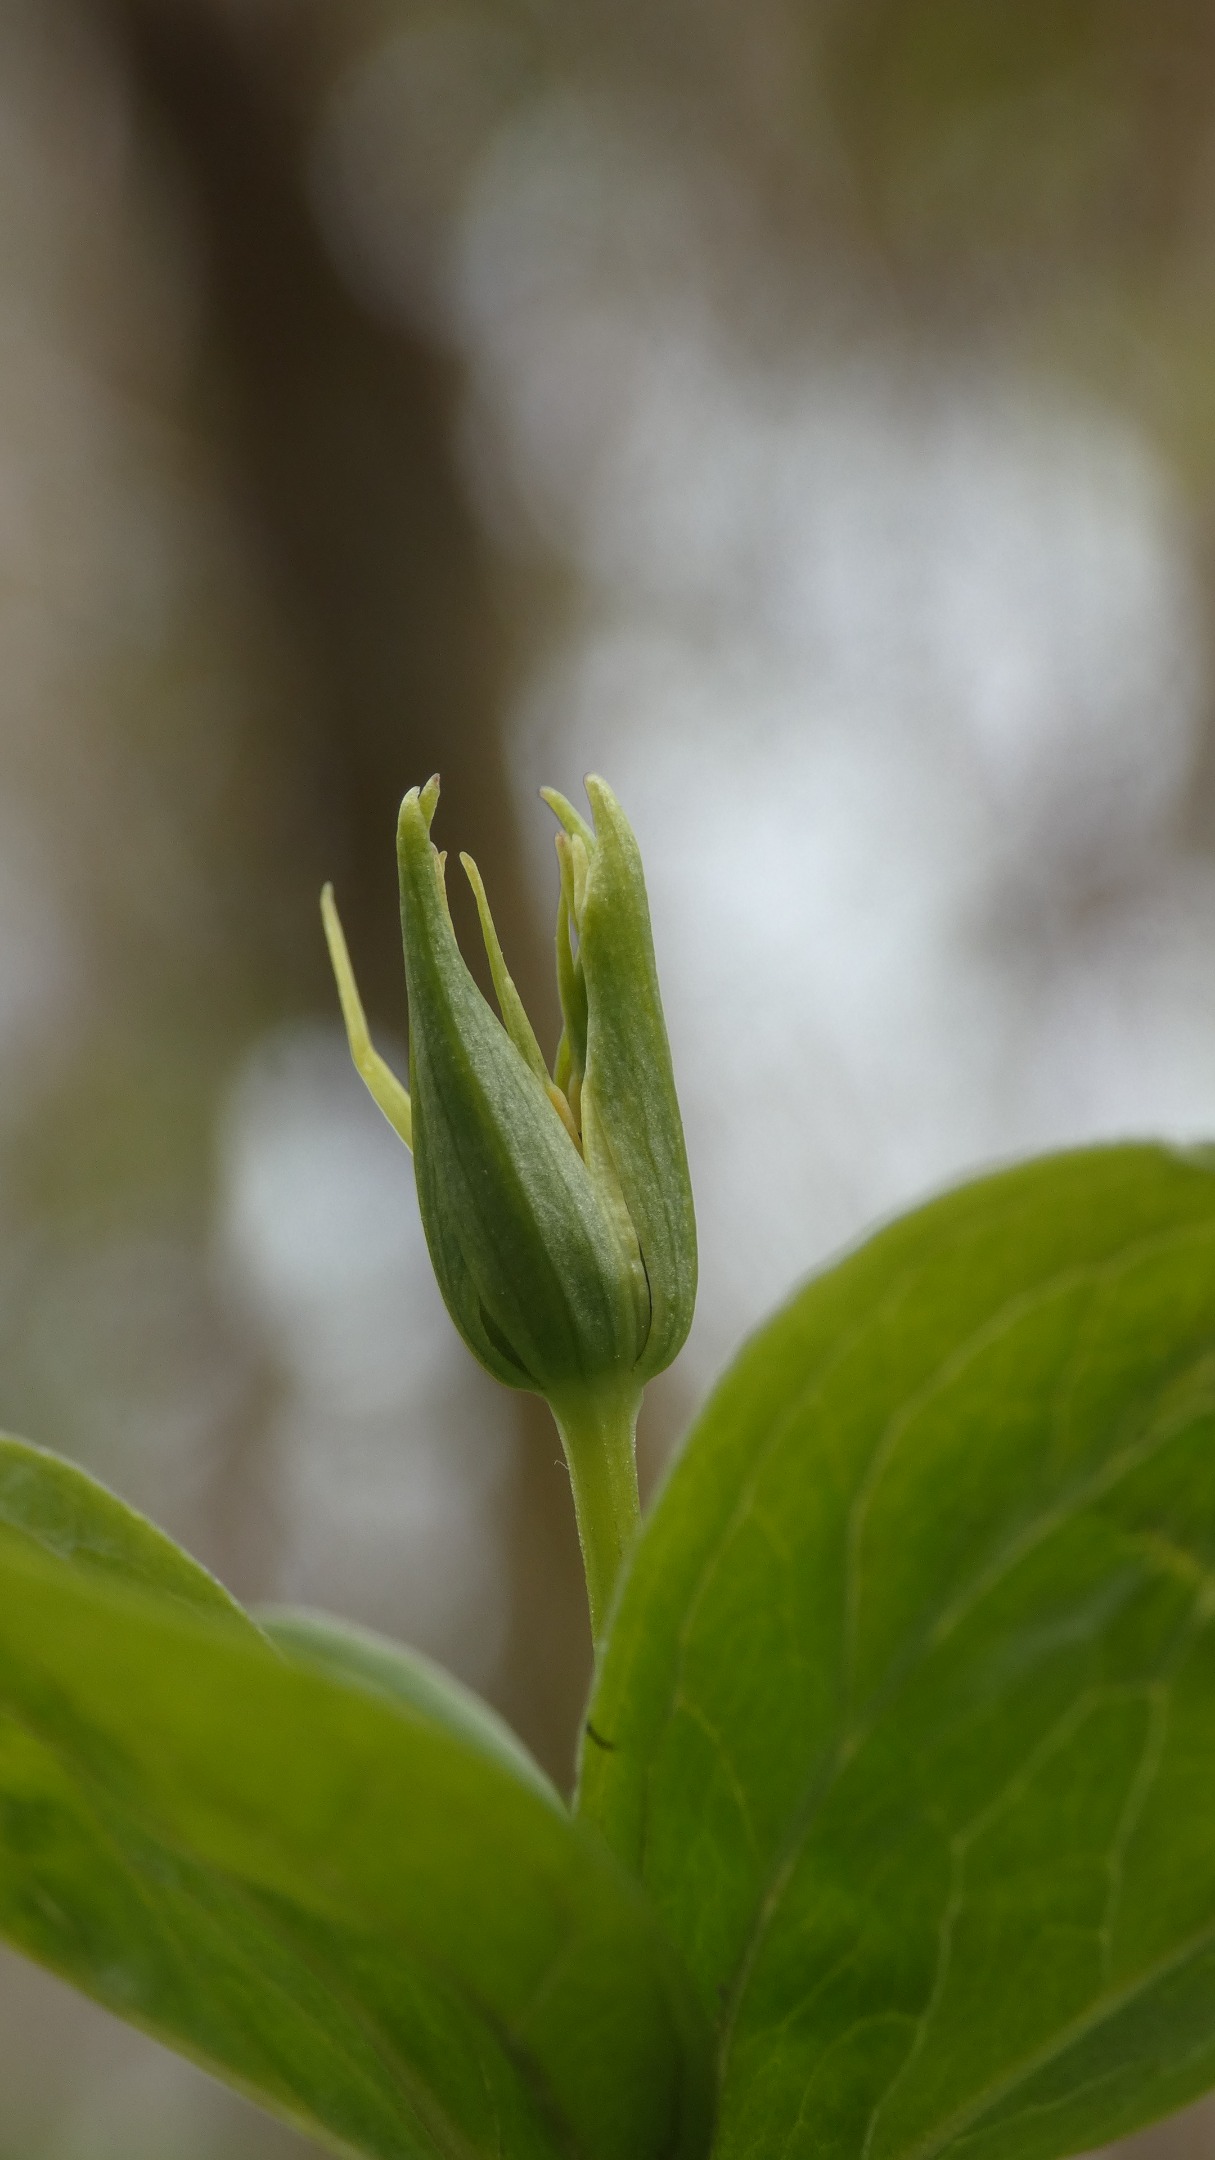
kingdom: Plantae
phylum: Tracheophyta
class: Liliopsida
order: Liliales
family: Melanthiaceae
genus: Paris
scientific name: Paris quadrifolia
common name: Firblad
